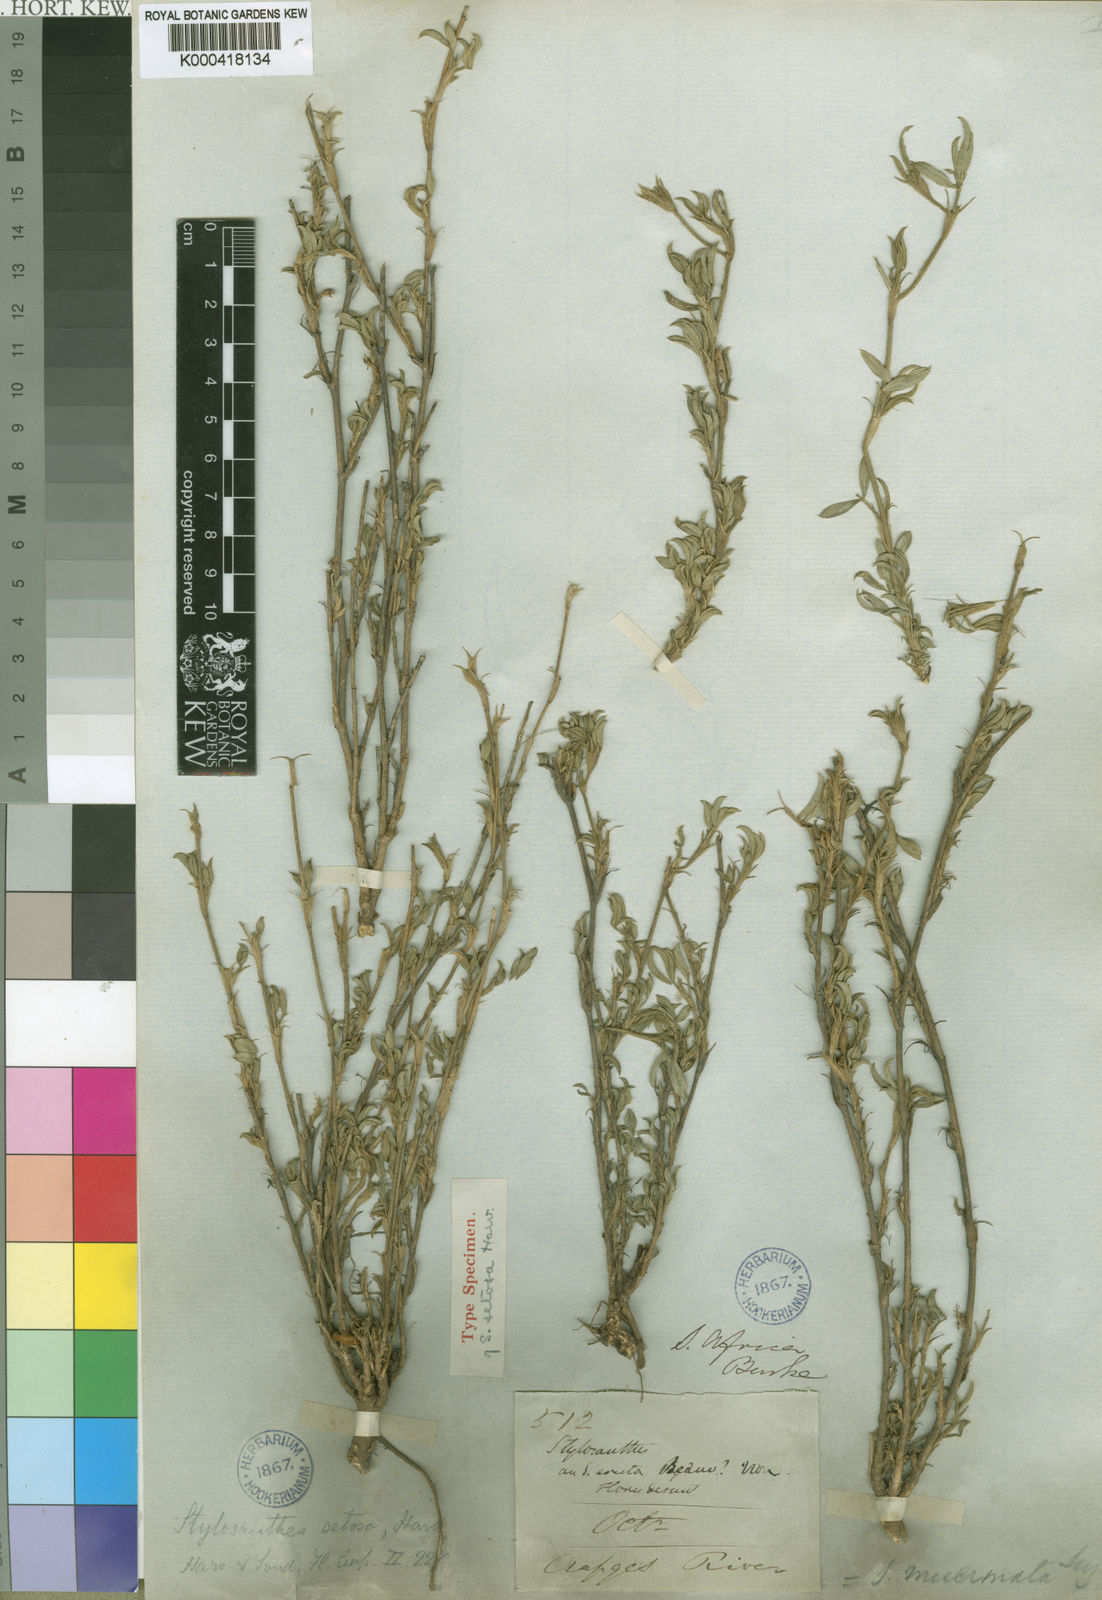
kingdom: Plantae
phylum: Tracheophyta
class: Magnoliopsida
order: Fabales
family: Fabaceae
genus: Stylosanthes
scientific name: Stylosanthes fruticosa
